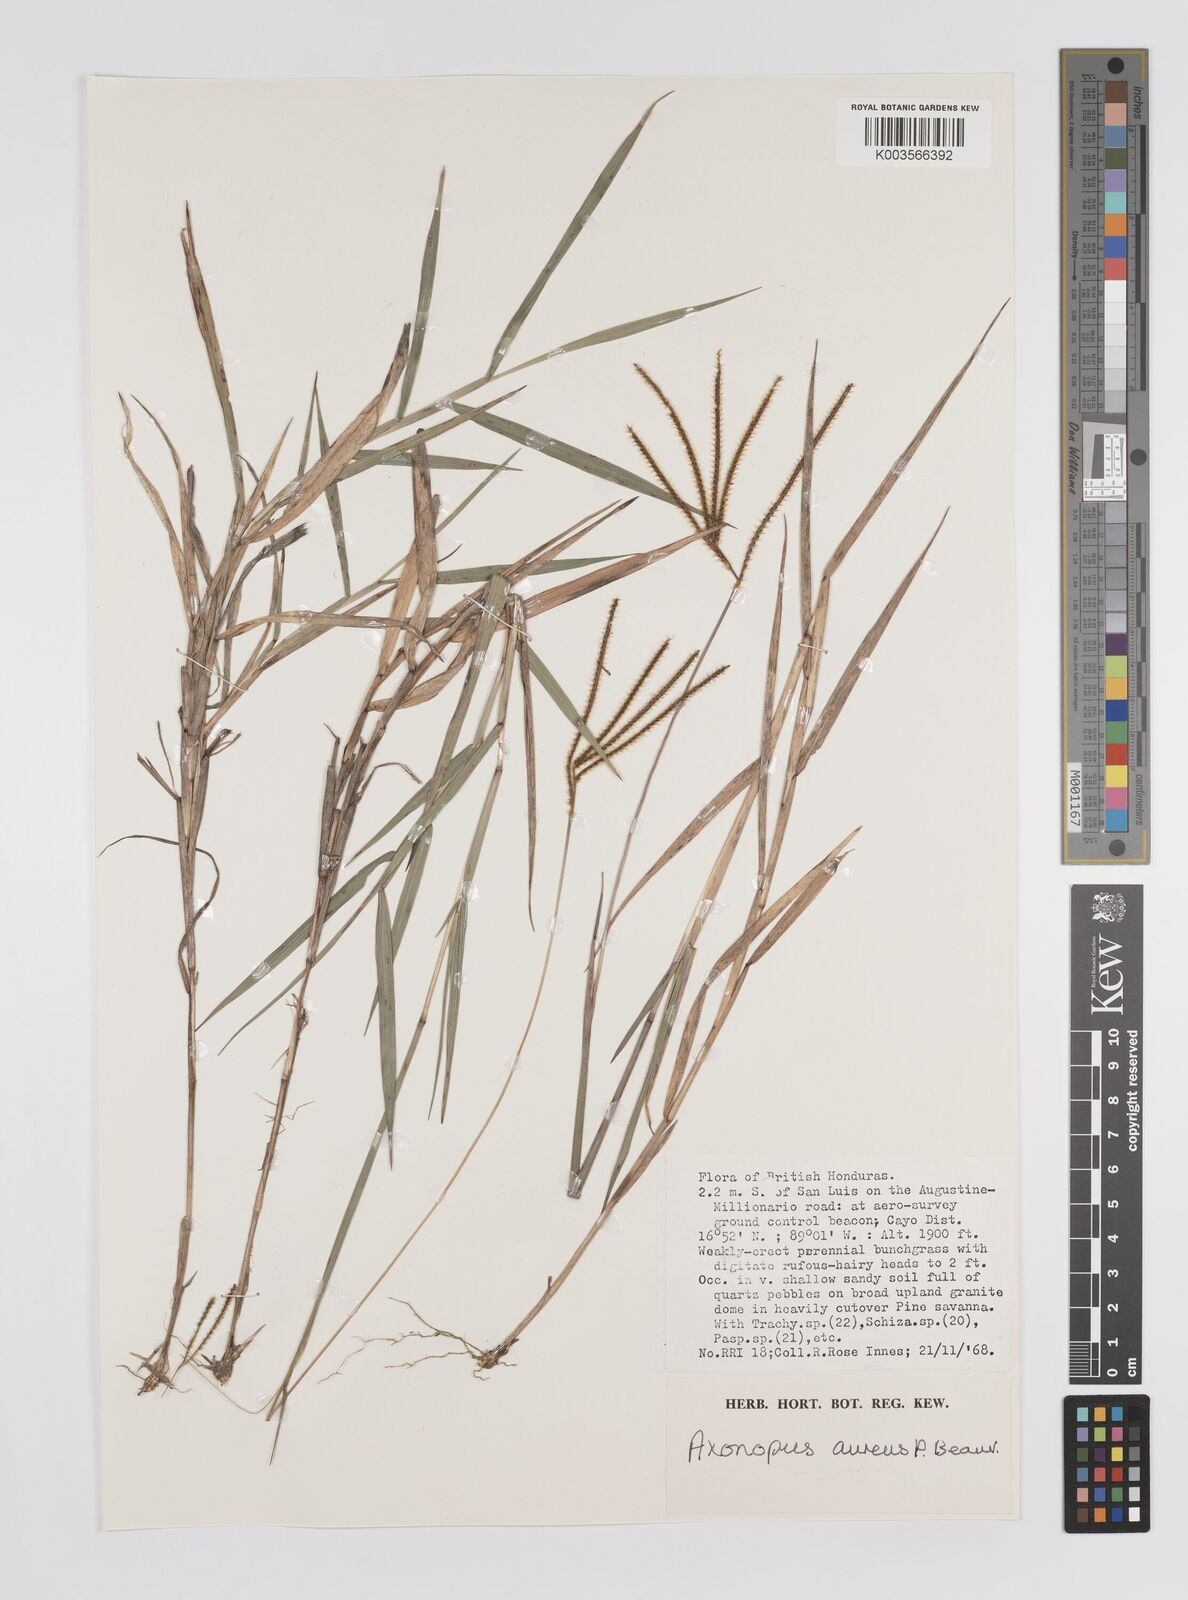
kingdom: Plantae
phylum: Tracheophyta
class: Liliopsida
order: Poales
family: Poaceae
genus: Axonopus
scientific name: Axonopus aureus
